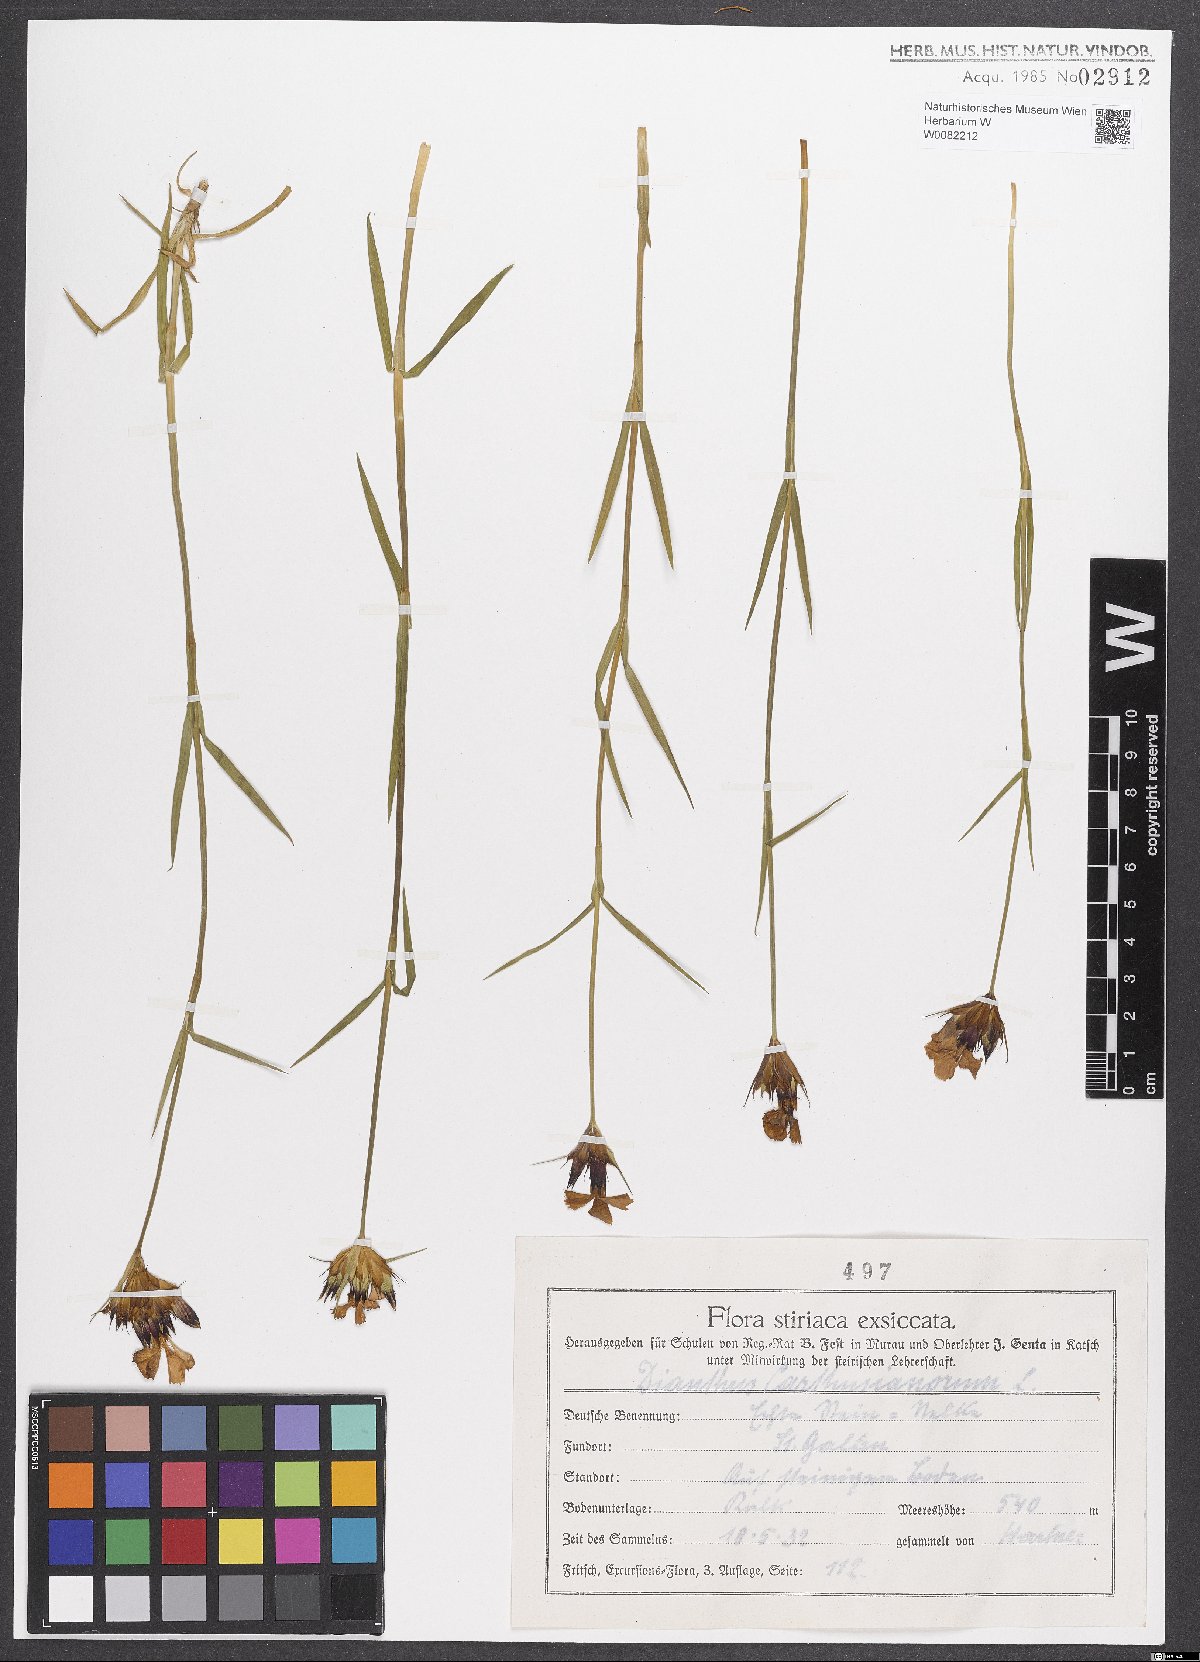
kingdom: Plantae
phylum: Tracheophyta
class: Magnoliopsida
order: Caryophyllales
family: Caryophyllaceae
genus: Dianthus
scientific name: Dianthus carthusianorum
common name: Carthusian pink
